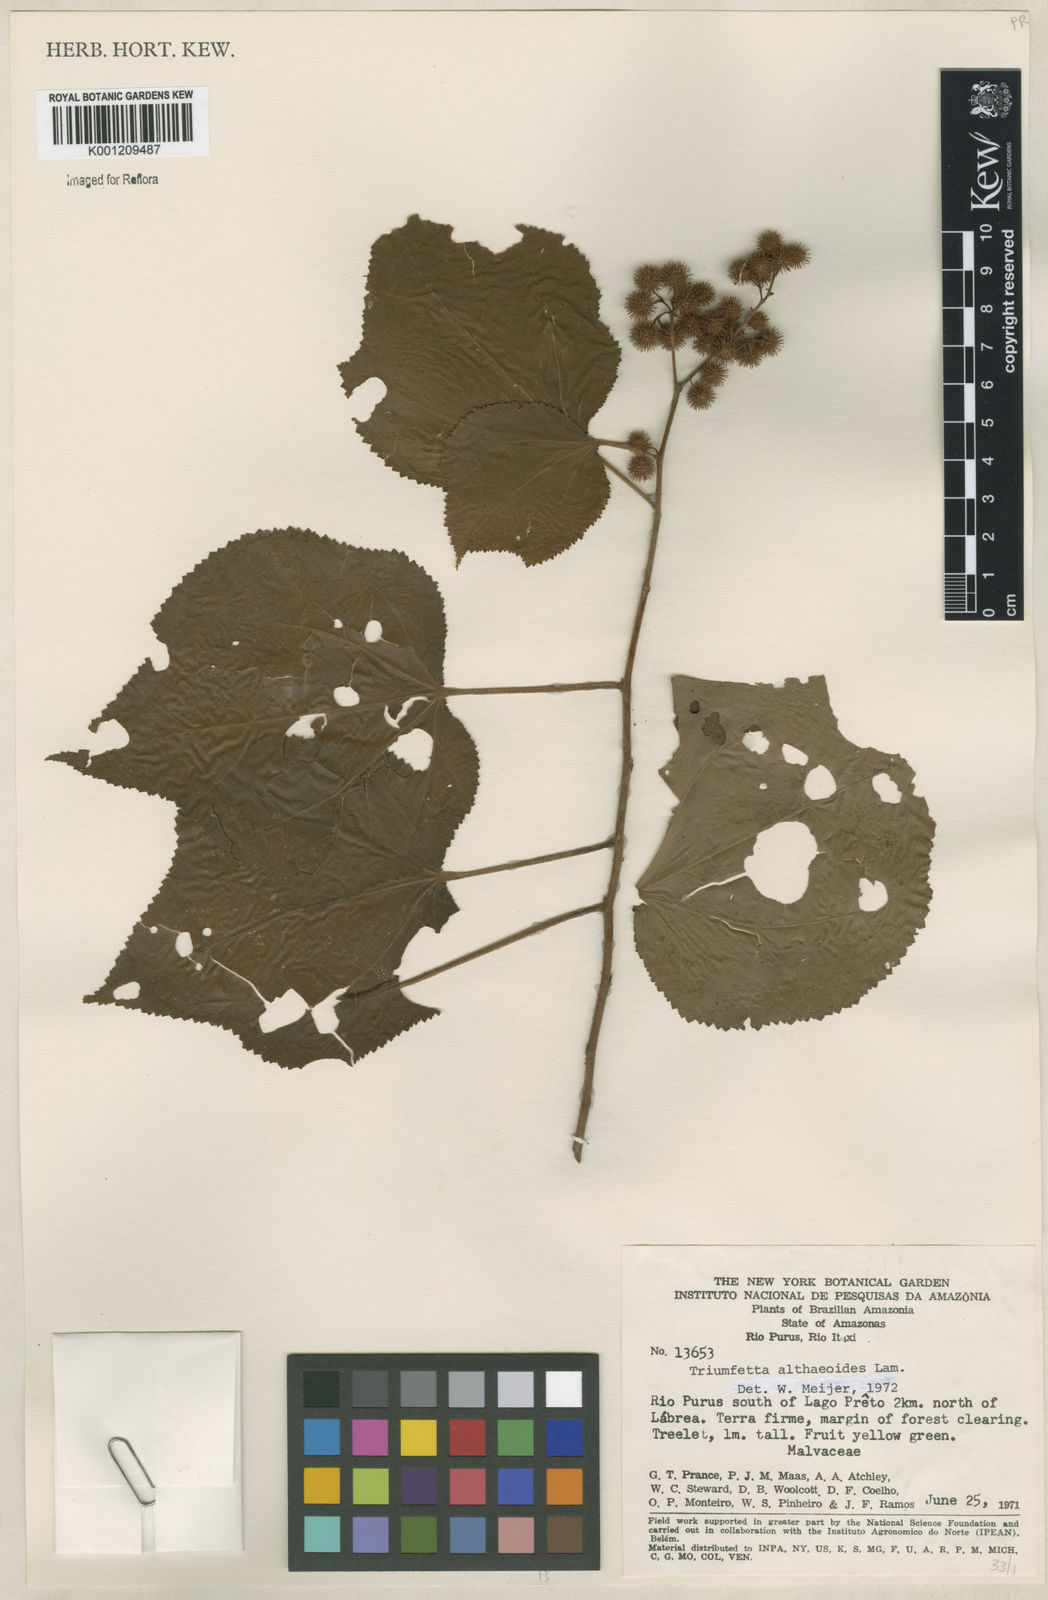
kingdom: Plantae
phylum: Tracheophyta
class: Magnoliopsida
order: Malvales
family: Malvaceae
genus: Triumfetta
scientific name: Triumfetta althaeoides
